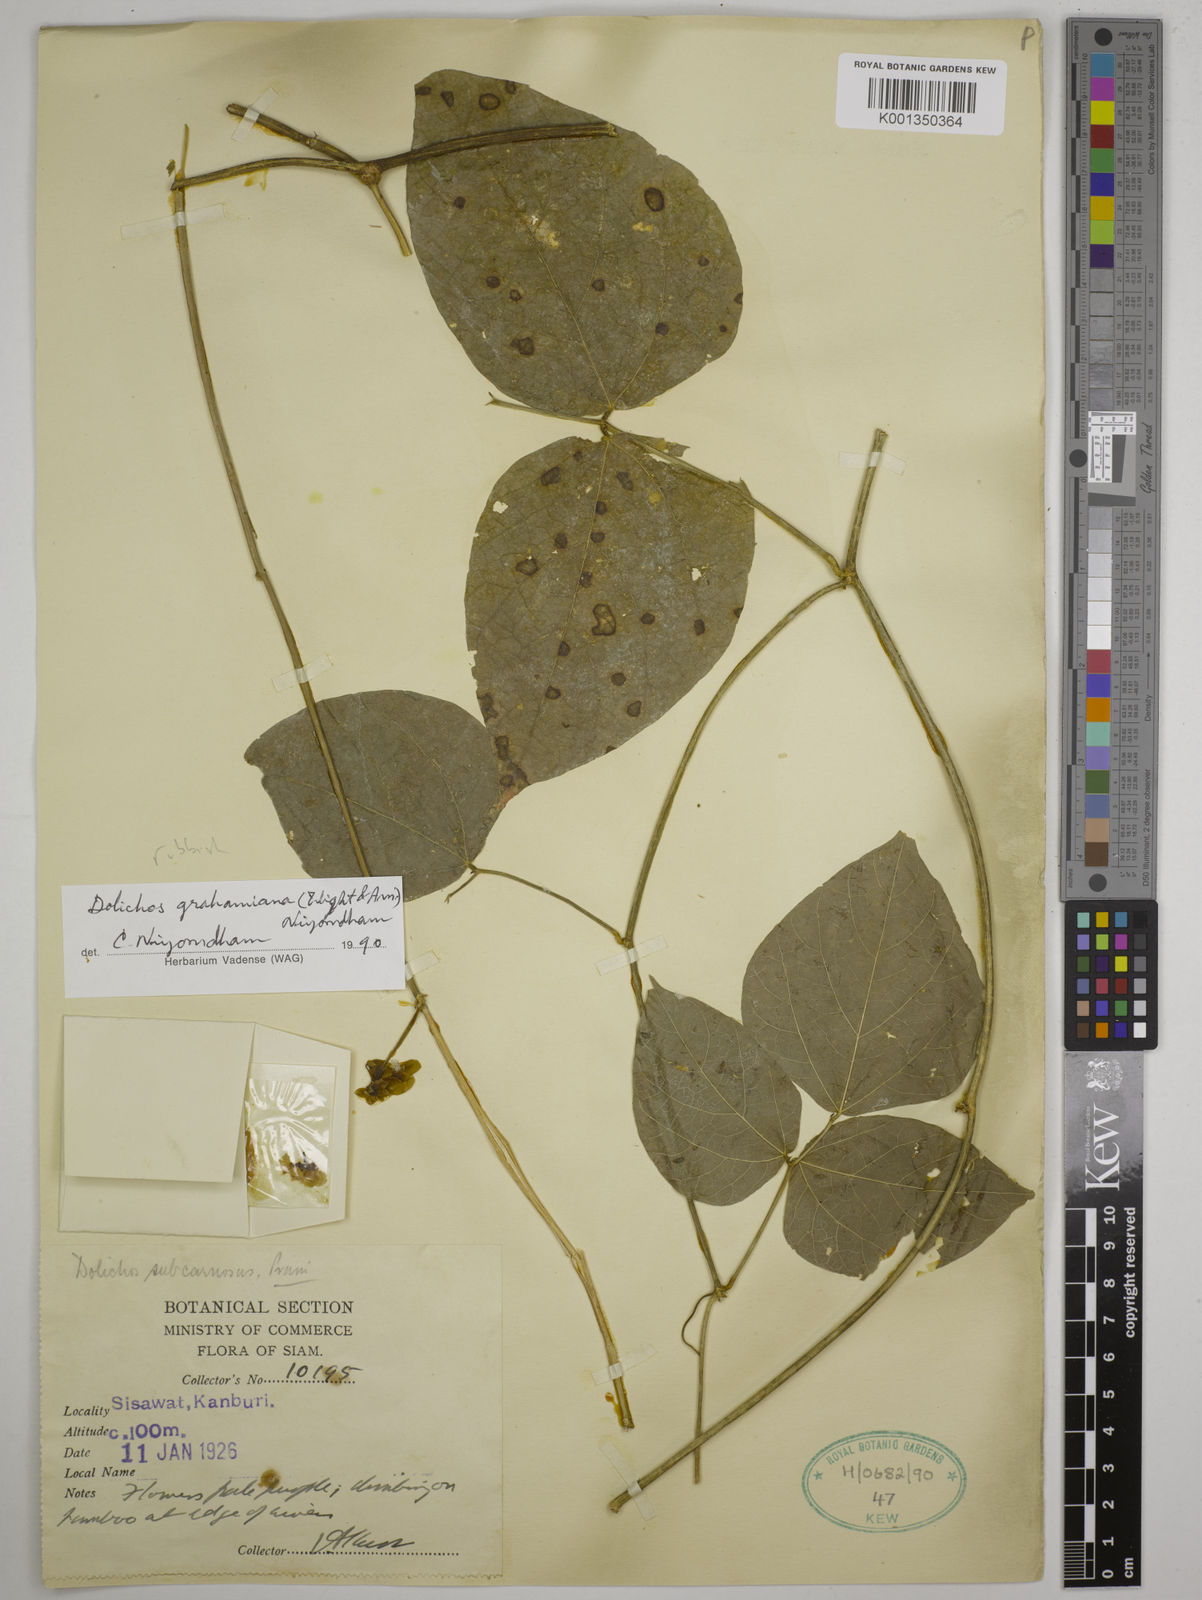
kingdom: Plantae
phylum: Tracheophyta
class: Magnoliopsida
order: Fabales
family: Fabaceae
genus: Wajira
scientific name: Wajira grahamiana
